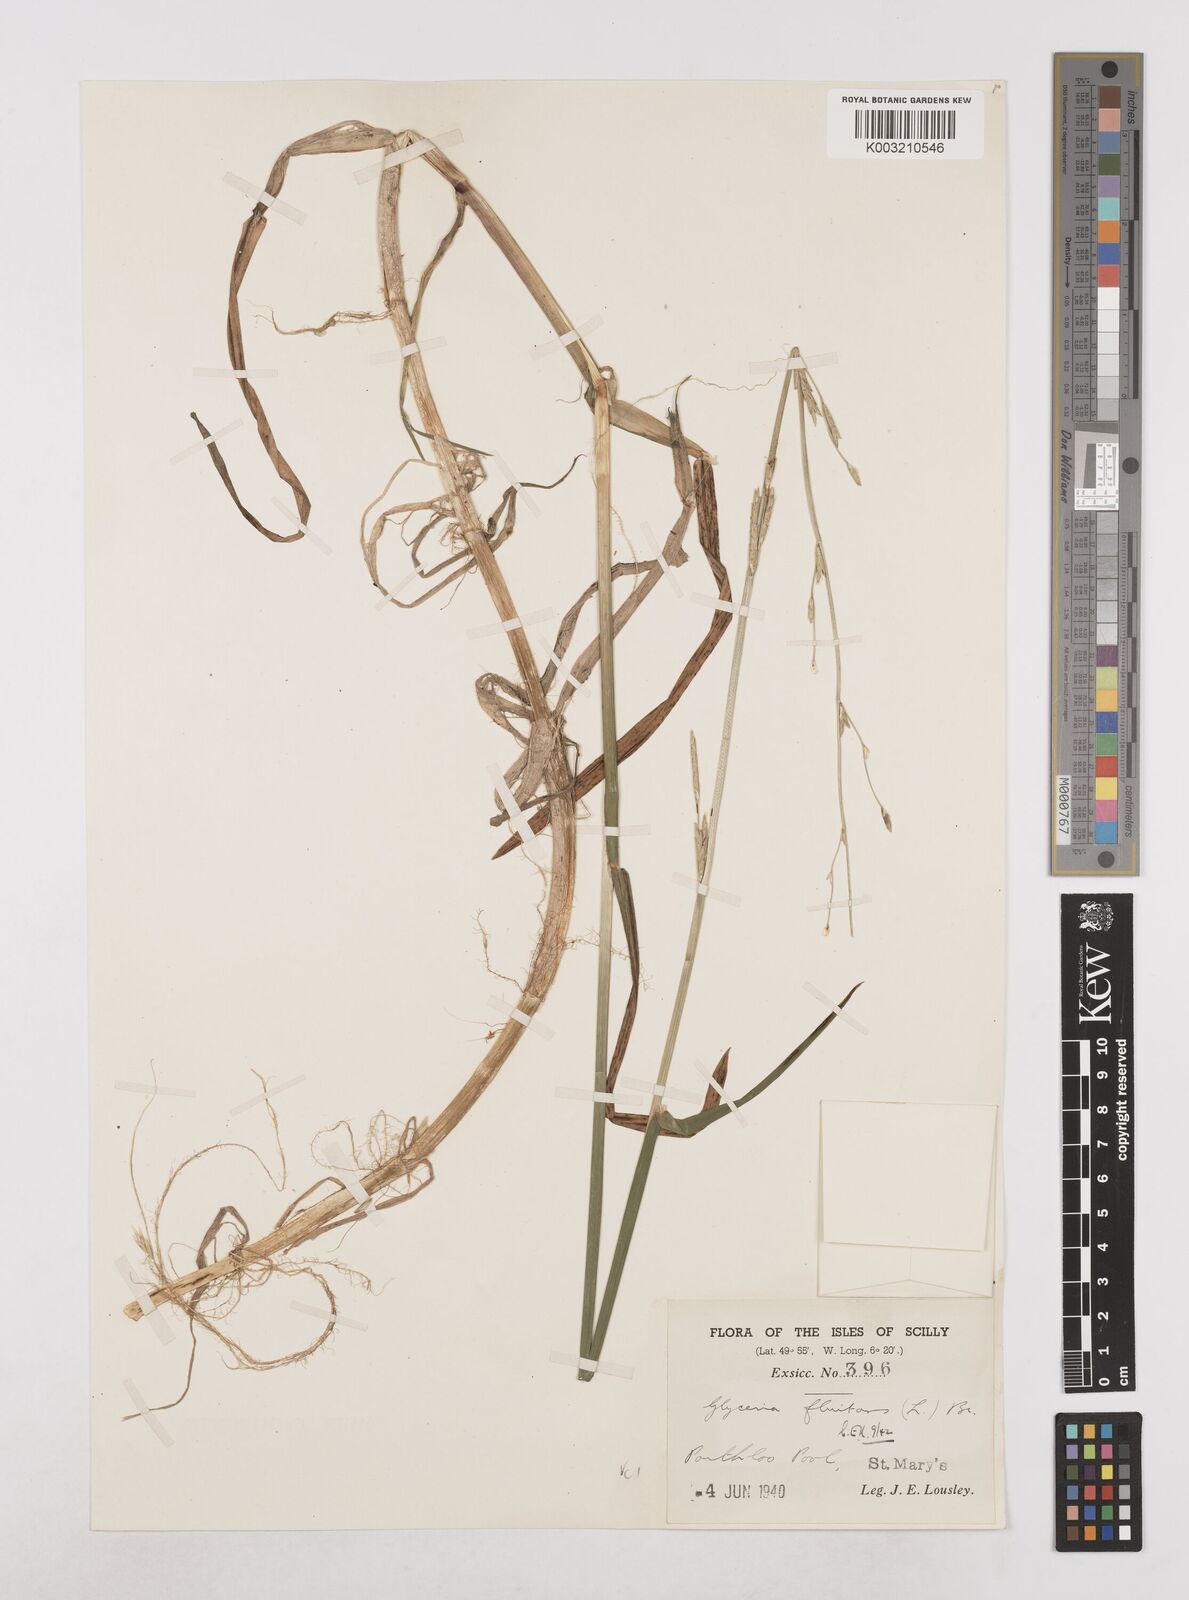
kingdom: Plantae
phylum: Tracheophyta
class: Liliopsida
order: Poales
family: Poaceae
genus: Glyceria
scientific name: Glyceria fluitans
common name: Floating sweet-grass
